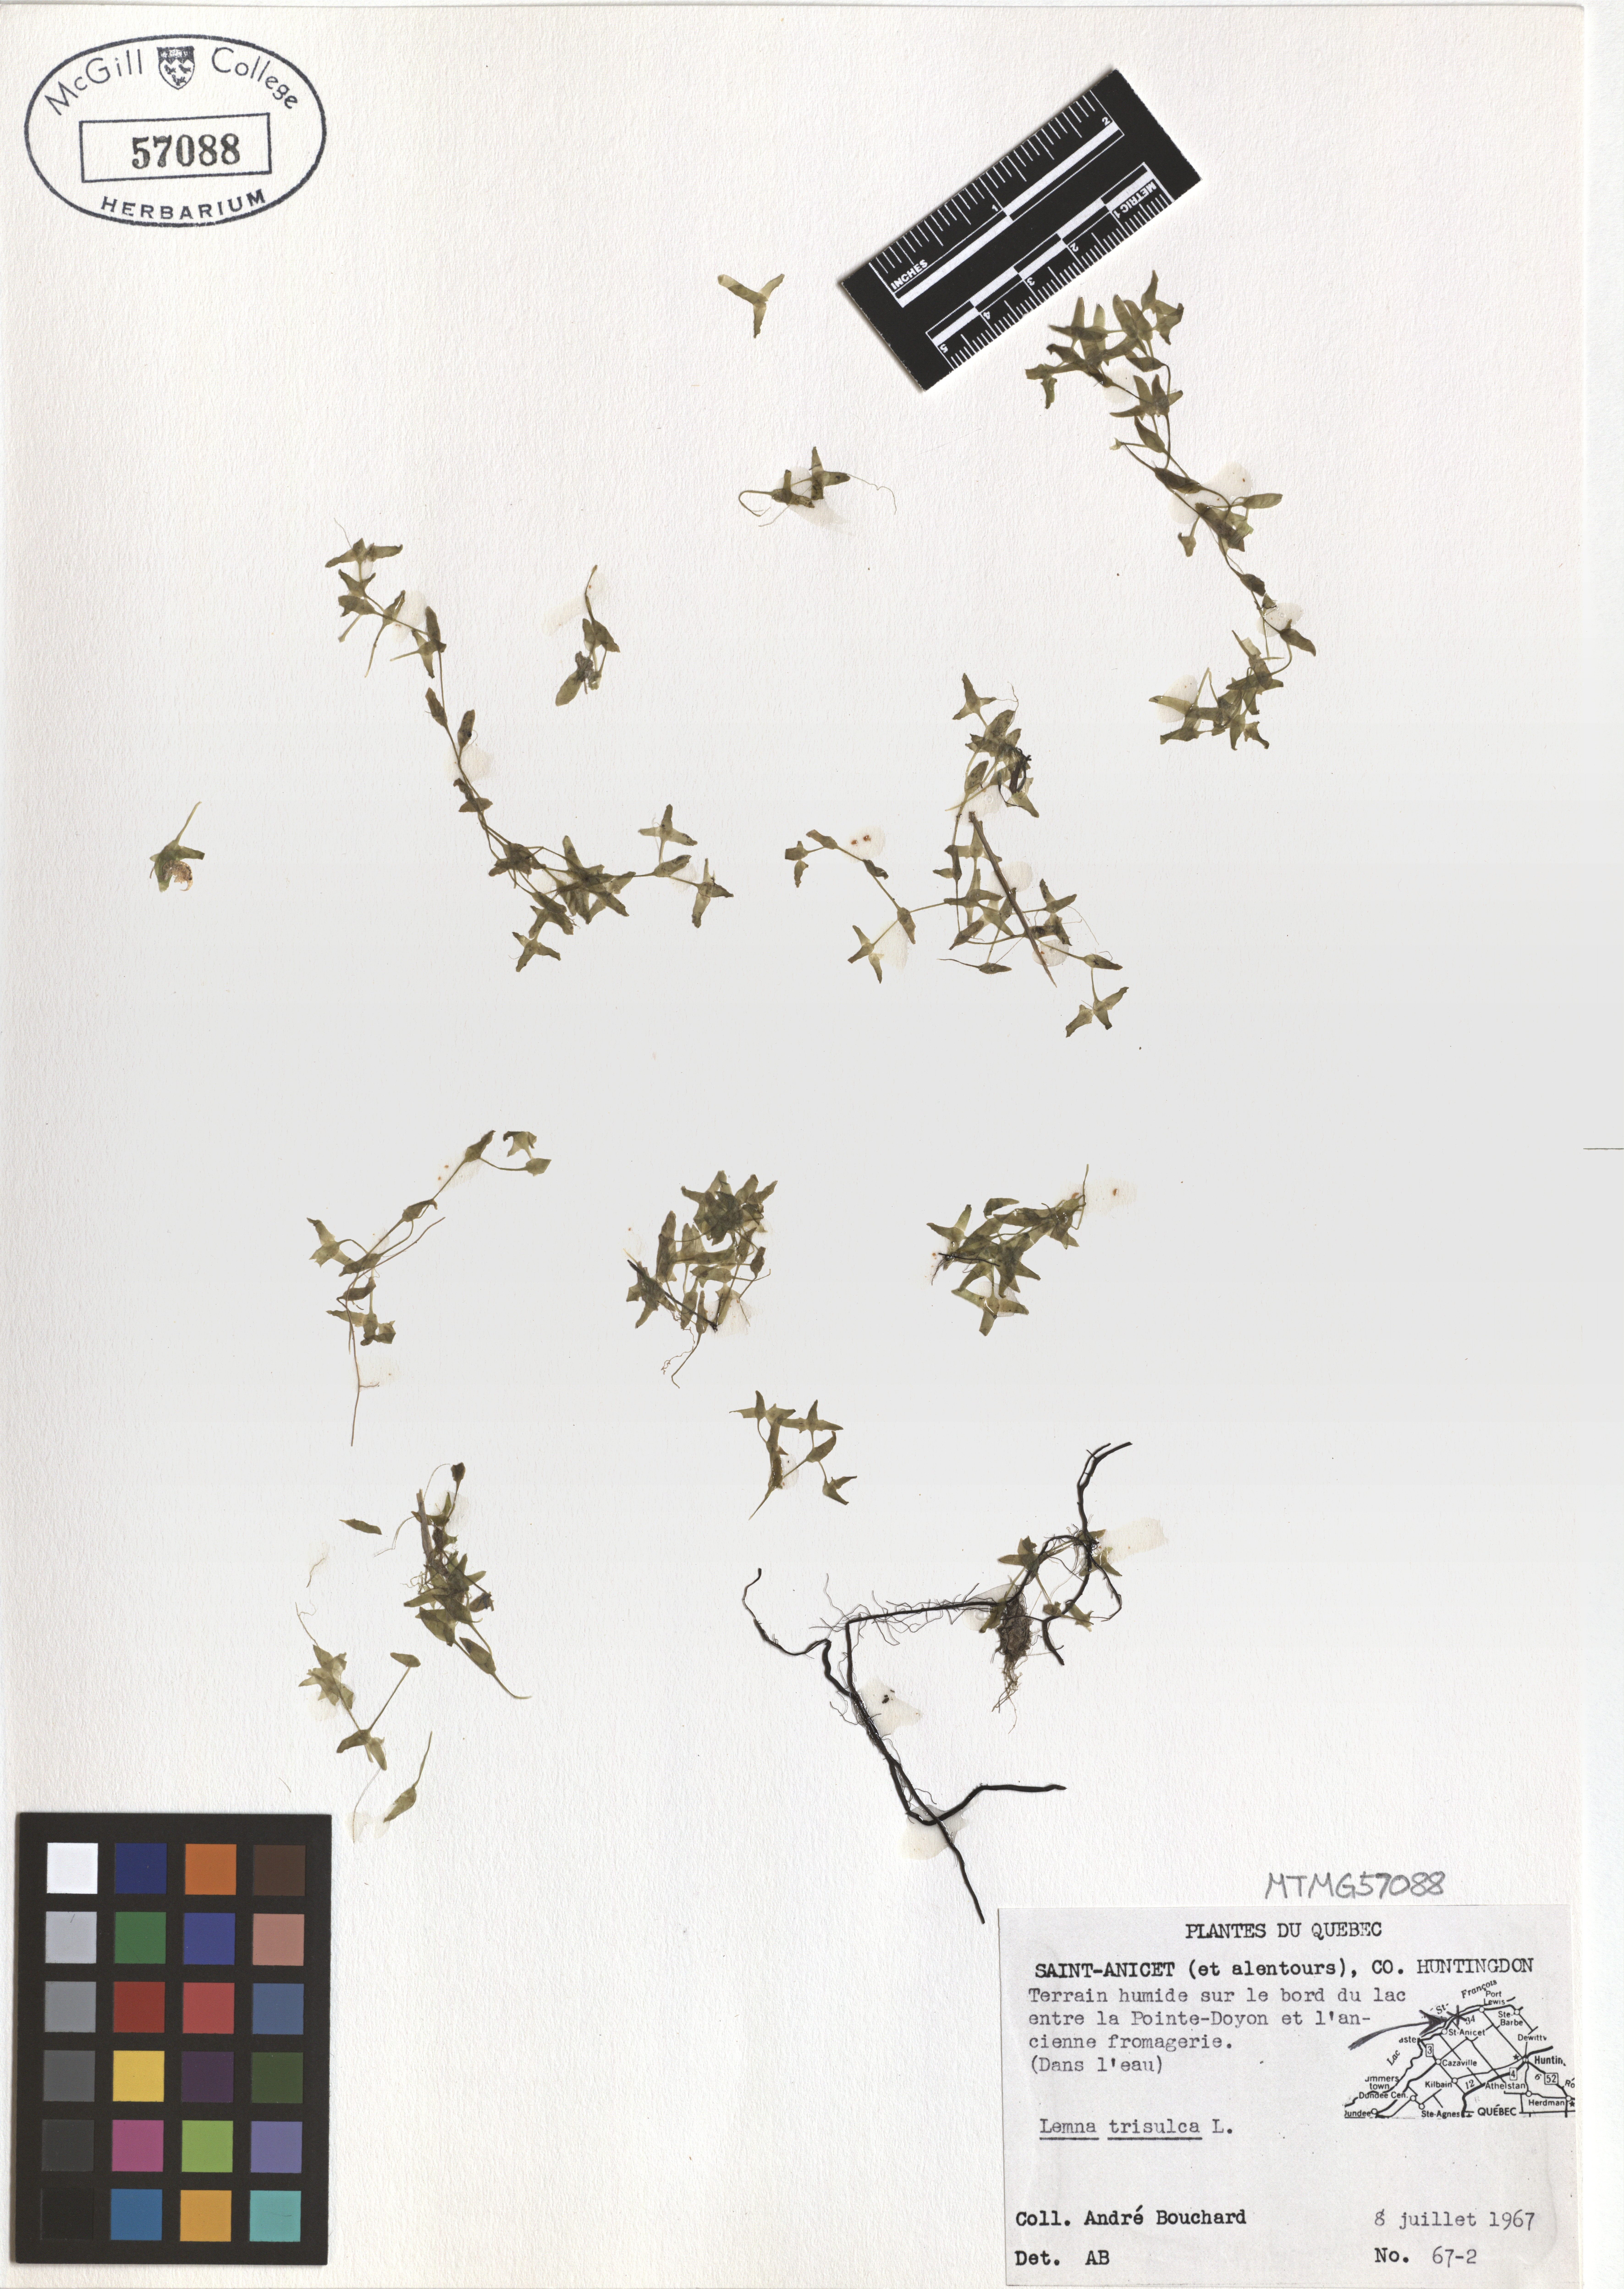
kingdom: Plantae
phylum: Tracheophyta
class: Liliopsida
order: Alismatales
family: Araceae
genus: Lemna
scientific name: Lemna trisulca
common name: Ivy-leaved duckweed
